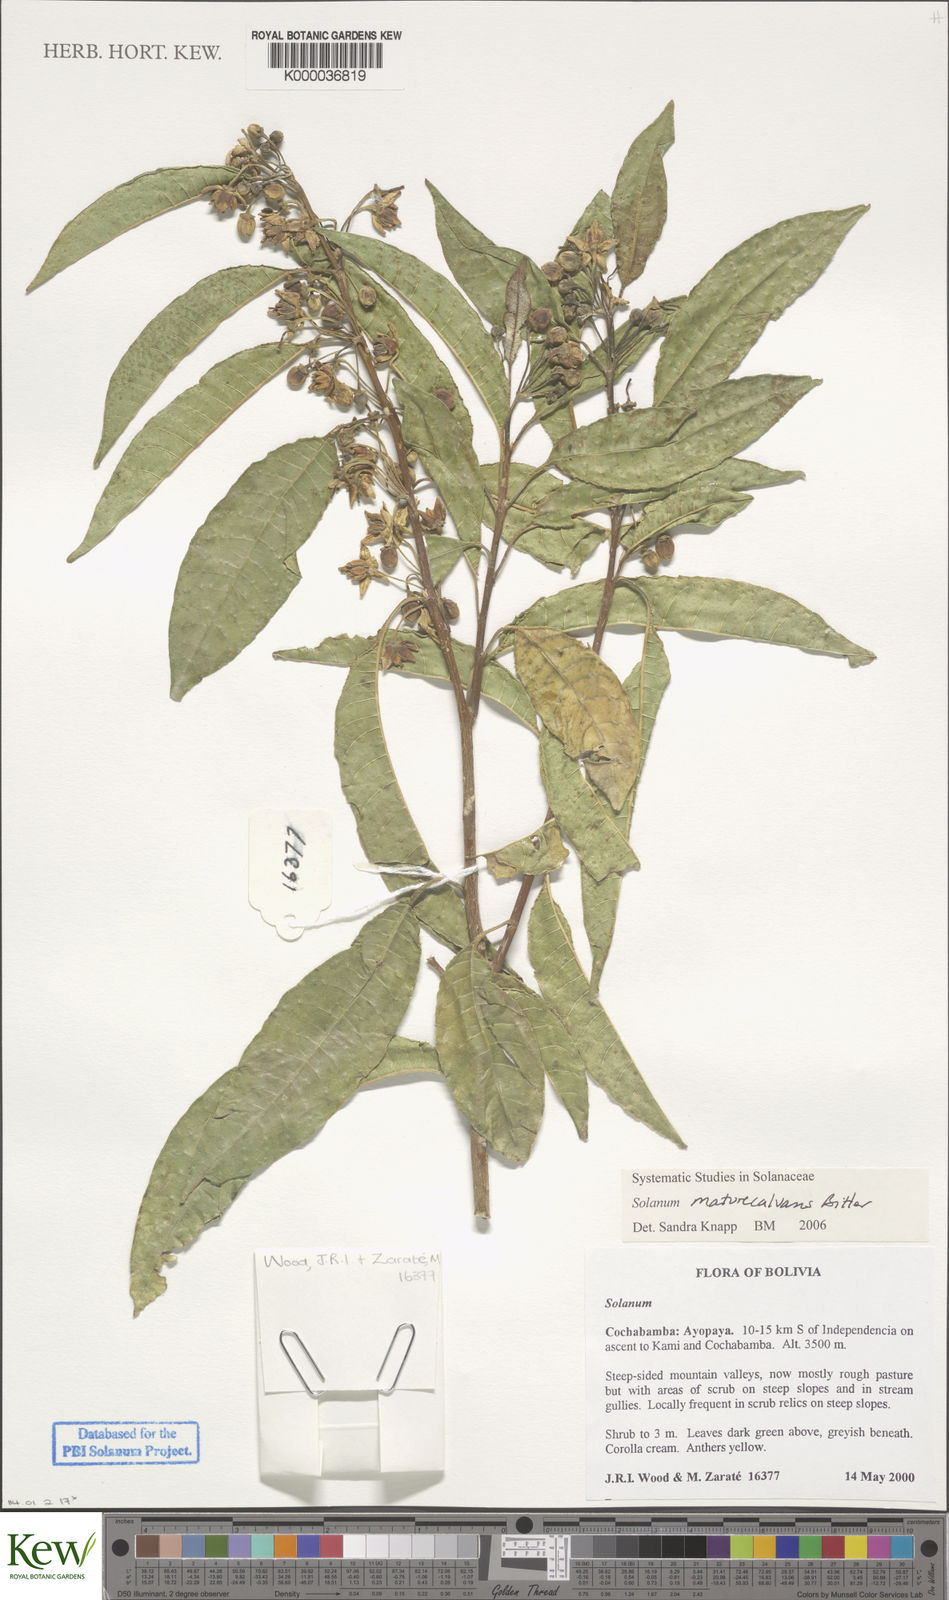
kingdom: Plantae
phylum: Tracheophyta
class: Magnoliopsida
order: Solanales
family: Solanaceae
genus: Solanum
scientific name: Solanum maturecalvans
